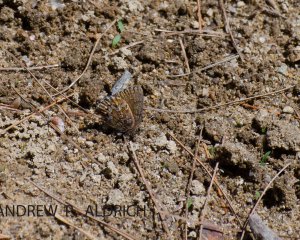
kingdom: Animalia
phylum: Arthropoda
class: Insecta
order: Lepidoptera
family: Lycaenidae
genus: Incisalia
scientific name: Incisalia niphon
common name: Eastern Pine Elfin
